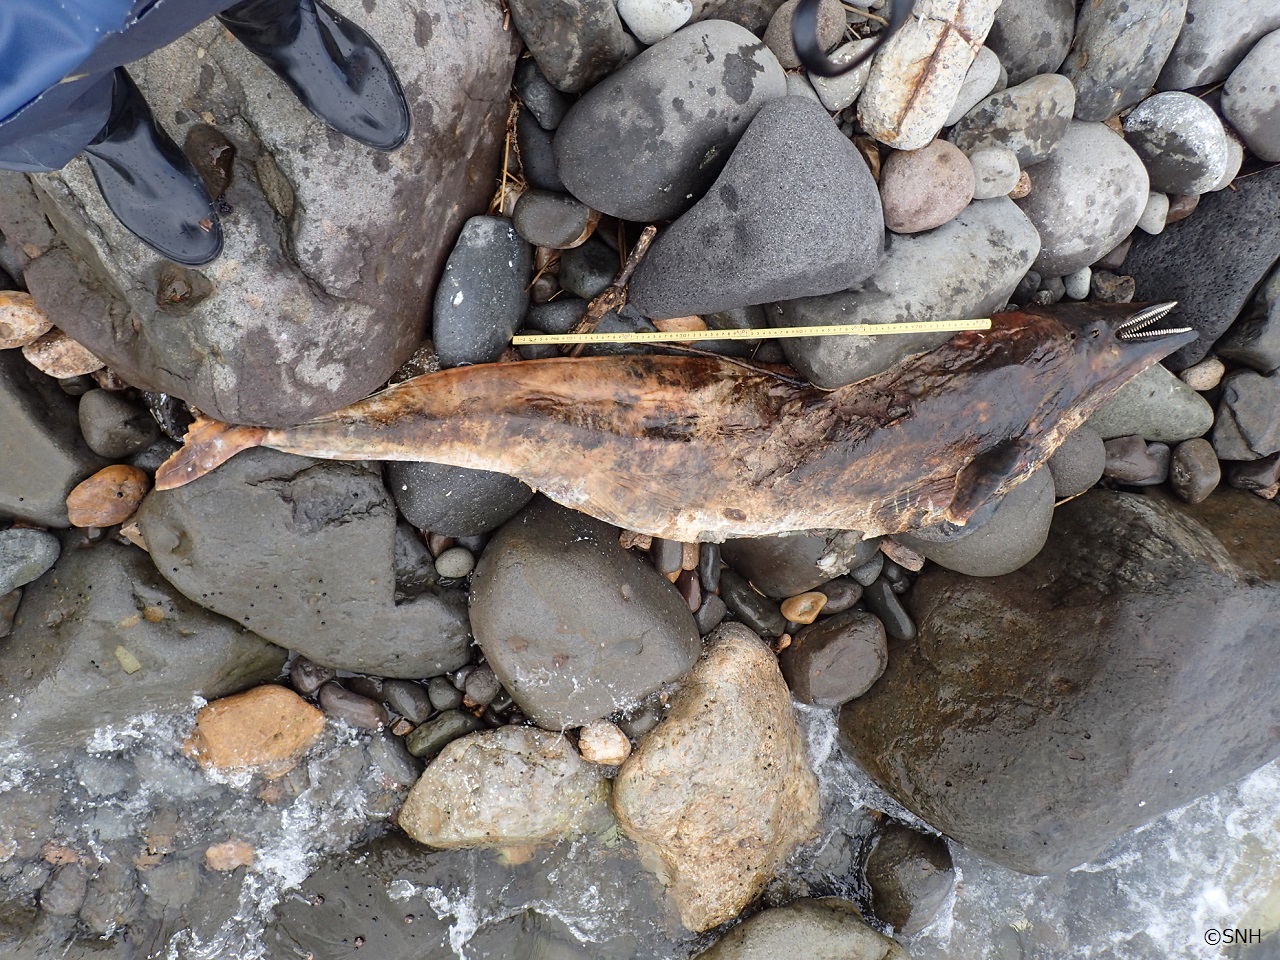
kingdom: Animalia
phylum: Chordata
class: Mammalia
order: Cetacea
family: Delphinidae
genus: Lagenorhynchus
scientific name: Lagenorhynchus obliquidens
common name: Pacific white-sided dolphin
